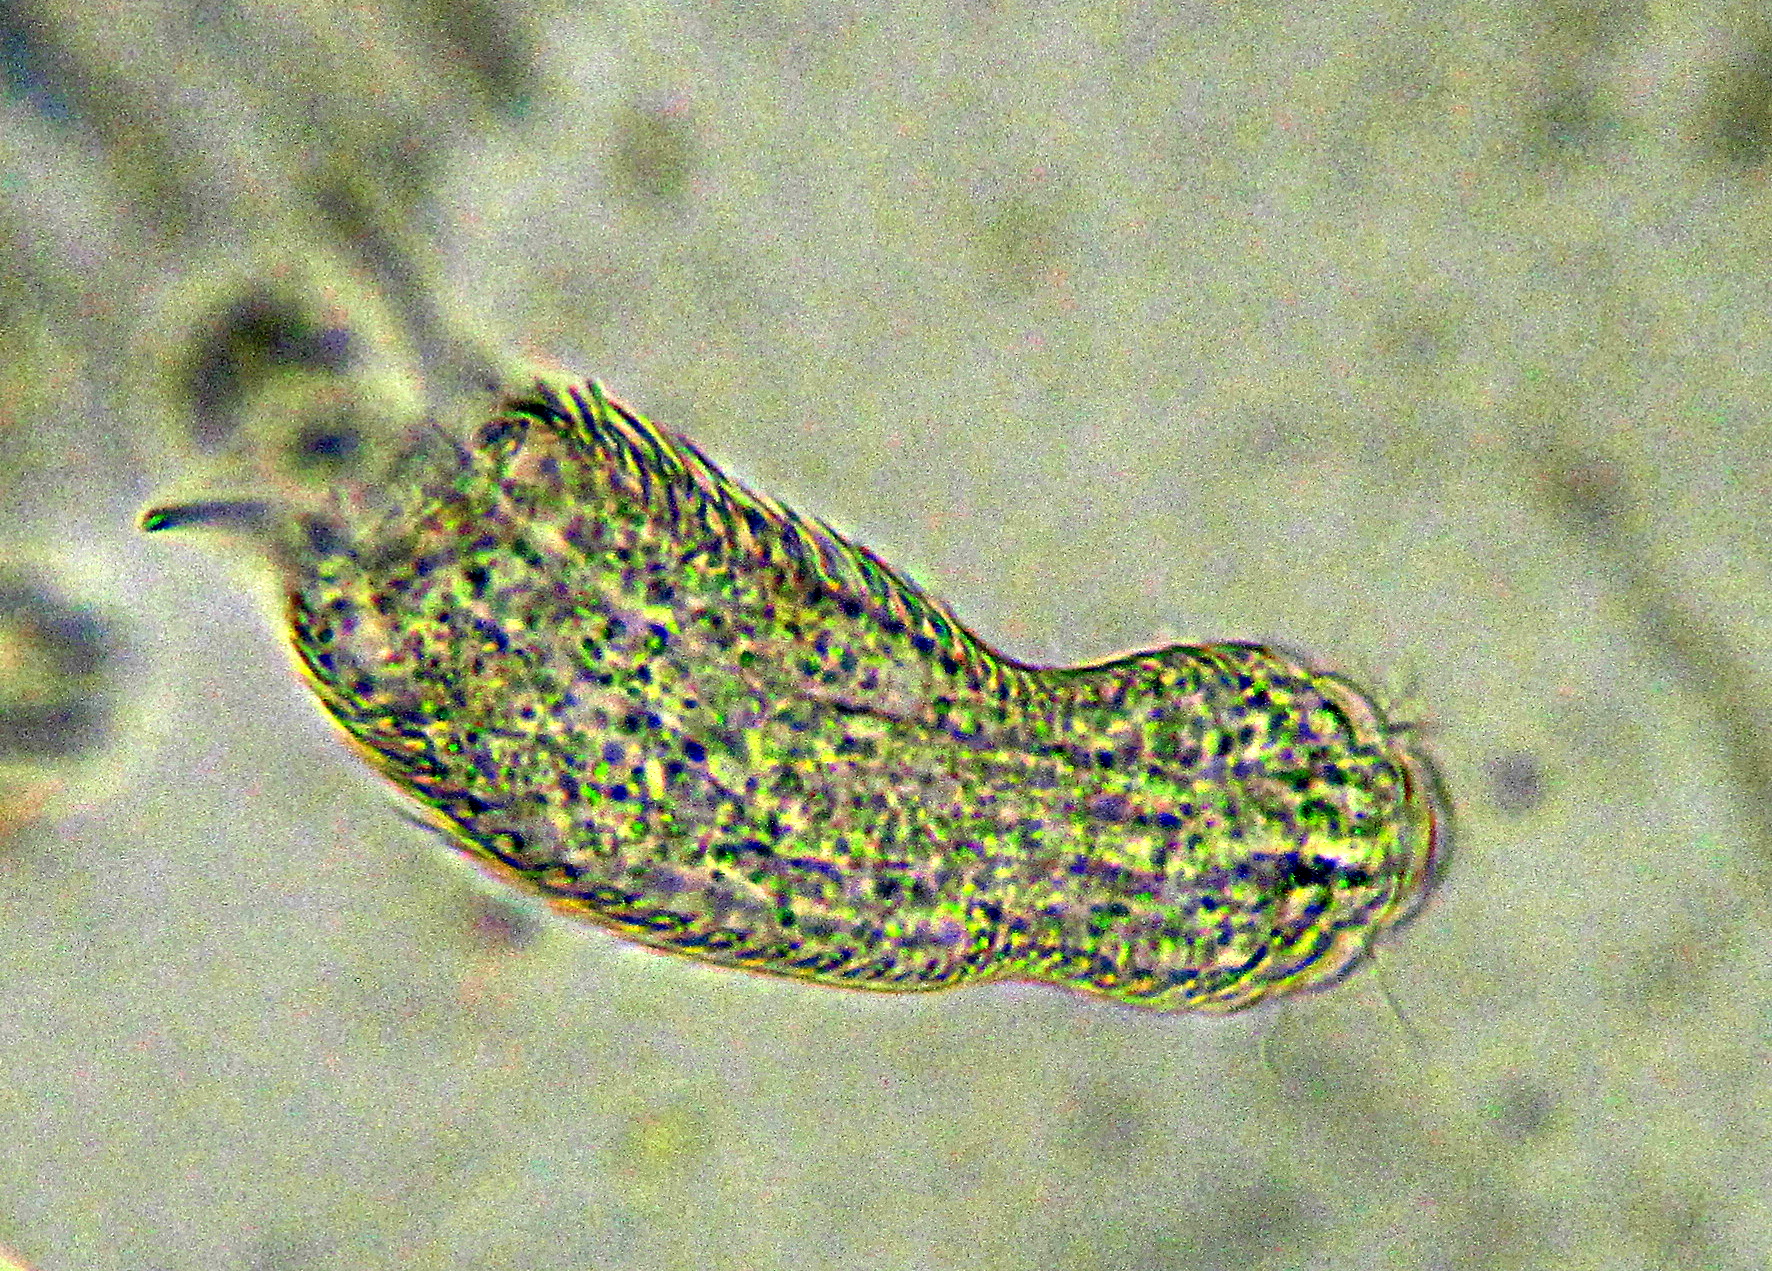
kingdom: Animalia
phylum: Gastrotricha
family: Chaetonotidae
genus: Heterolepidoderma
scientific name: Heterolepidoderma ocellatum
